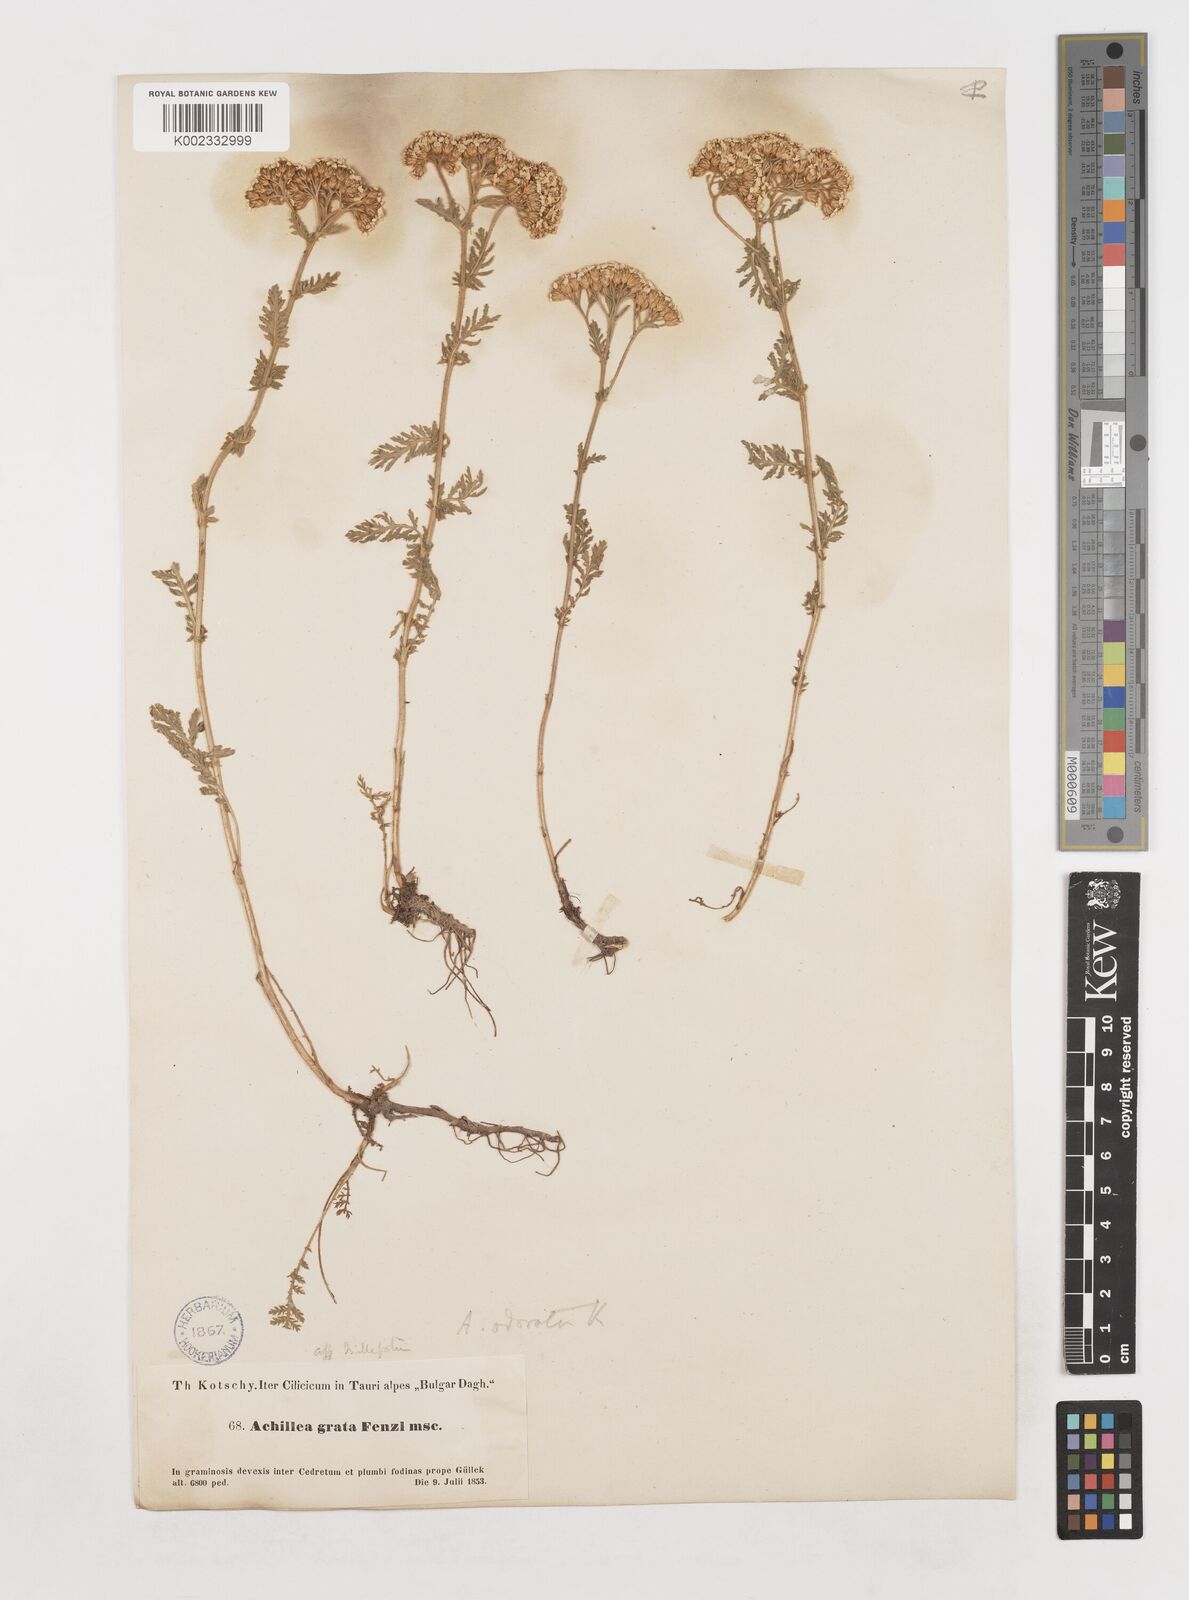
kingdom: Plantae
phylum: Tracheophyta
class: Magnoliopsida
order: Asterales
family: Asteraceae
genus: Achillea
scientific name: Achillea
